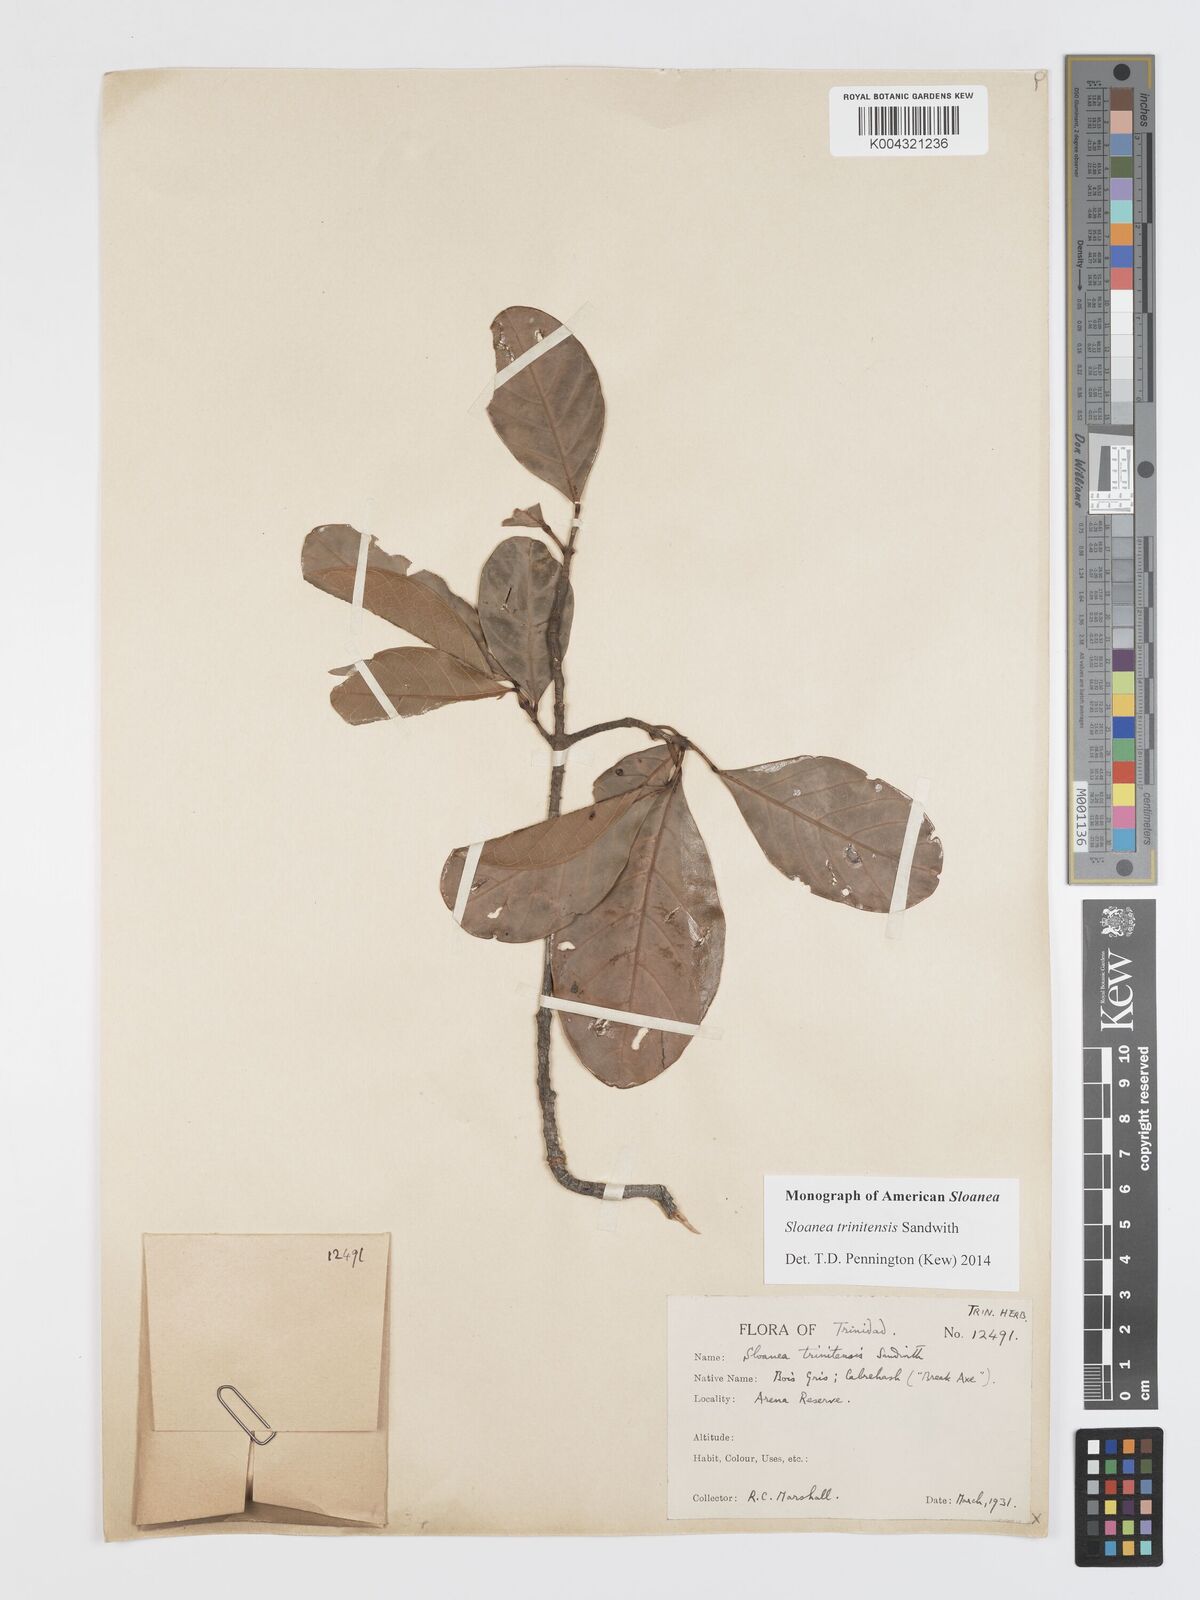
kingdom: Plantae
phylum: Tracheophyta
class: Magnoliopsida
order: Oxalidales
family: Elaeocarpaceae
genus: Sloanea
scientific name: Sloanea laurifolia
